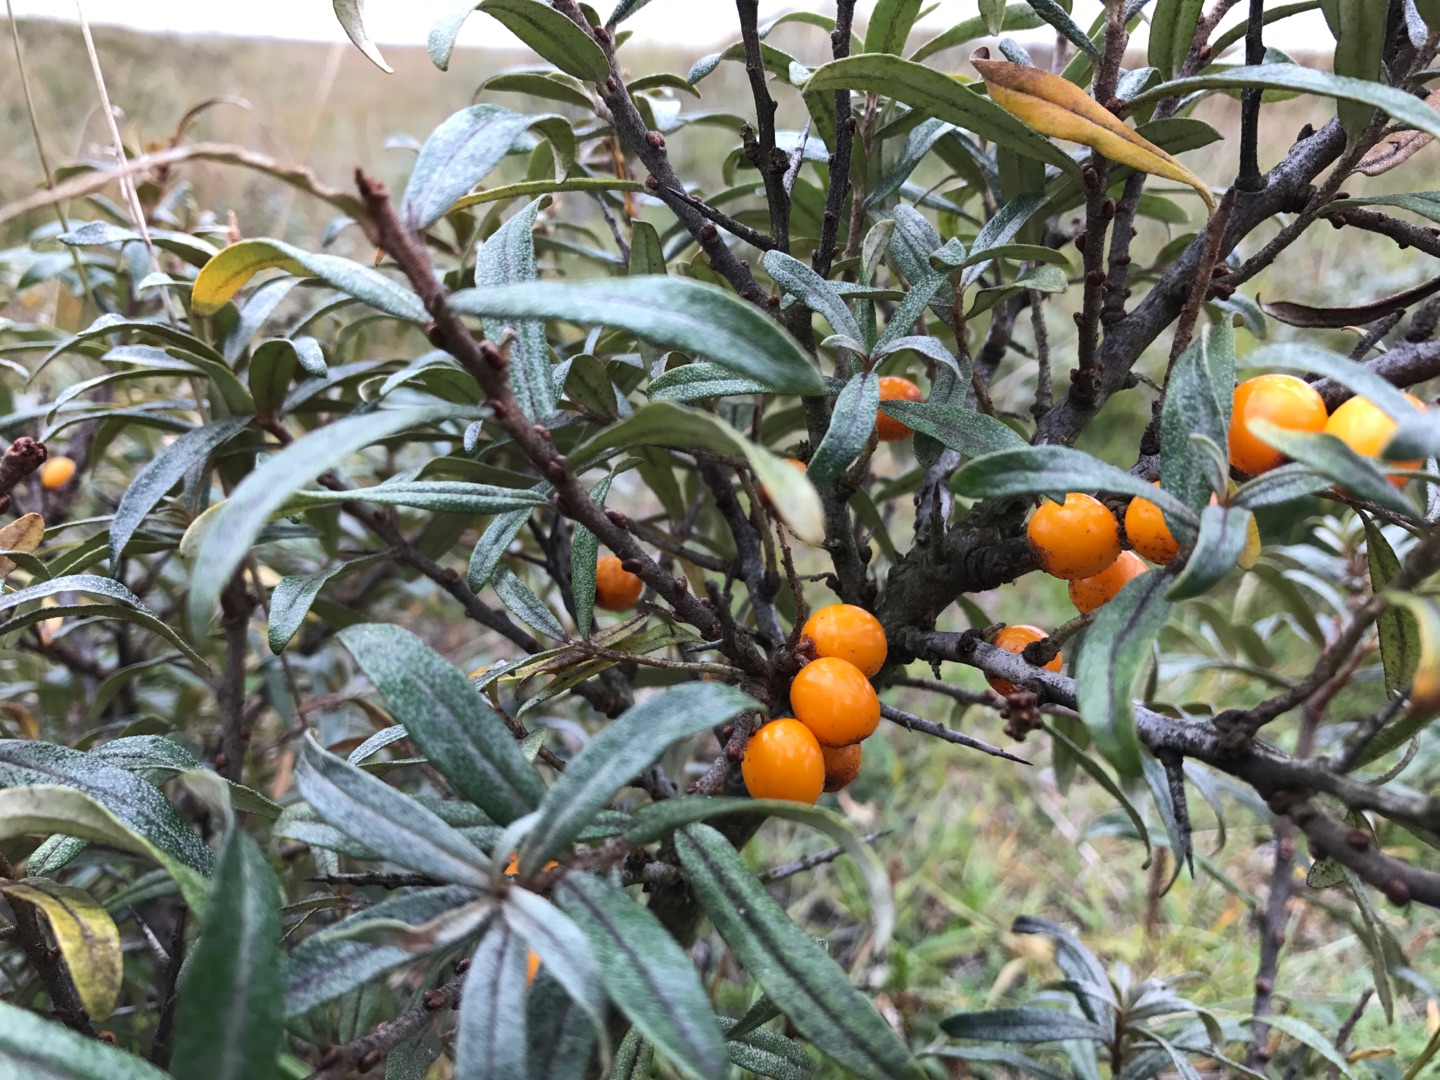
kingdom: Plantae
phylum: Tracheophyta
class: Magnoliopsida
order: Rosales
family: Elaeagnaceae
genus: Hippophae
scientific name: Hippophae rhamnoides
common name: Havtorn
